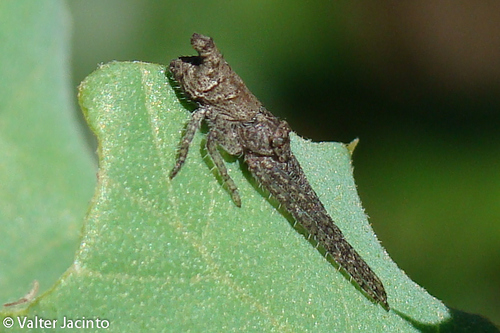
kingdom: Animalia
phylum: Arthropoda
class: Arachnida
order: Araneae
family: Thomisidae
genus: Tmarus
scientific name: Tmarus piger
